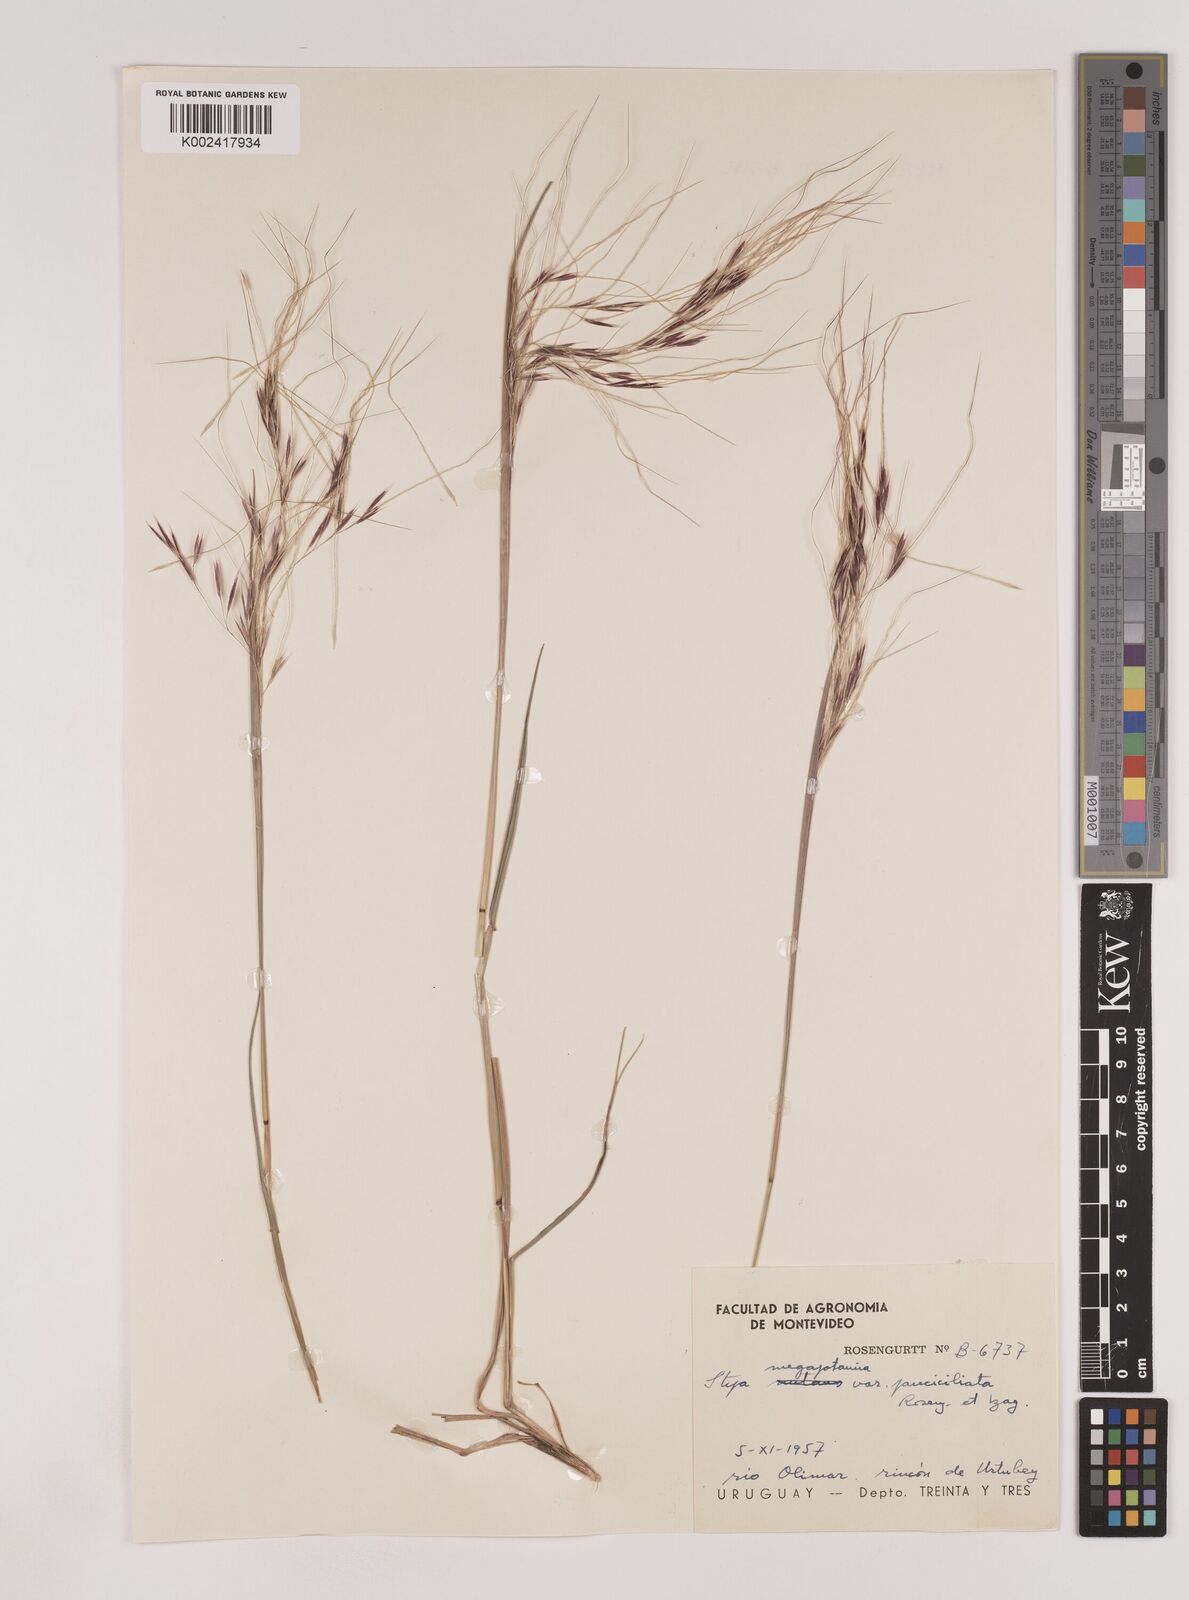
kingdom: Plantae
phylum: Tracheophyta
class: Liliopsida
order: Poales
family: Poaceae
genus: Nassella
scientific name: Nassella pauciciliata
